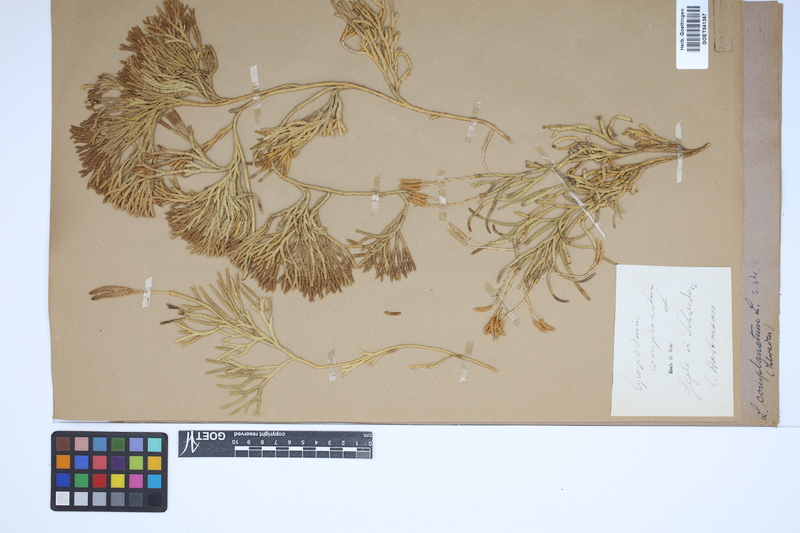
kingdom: Plantae
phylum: Tracheophyta
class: Lycopodiopsida
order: Lycopodiales
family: Lycopodiaceae
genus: Diphasiastrum
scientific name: Diphasiastrum complanatum
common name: Northern running-pine
